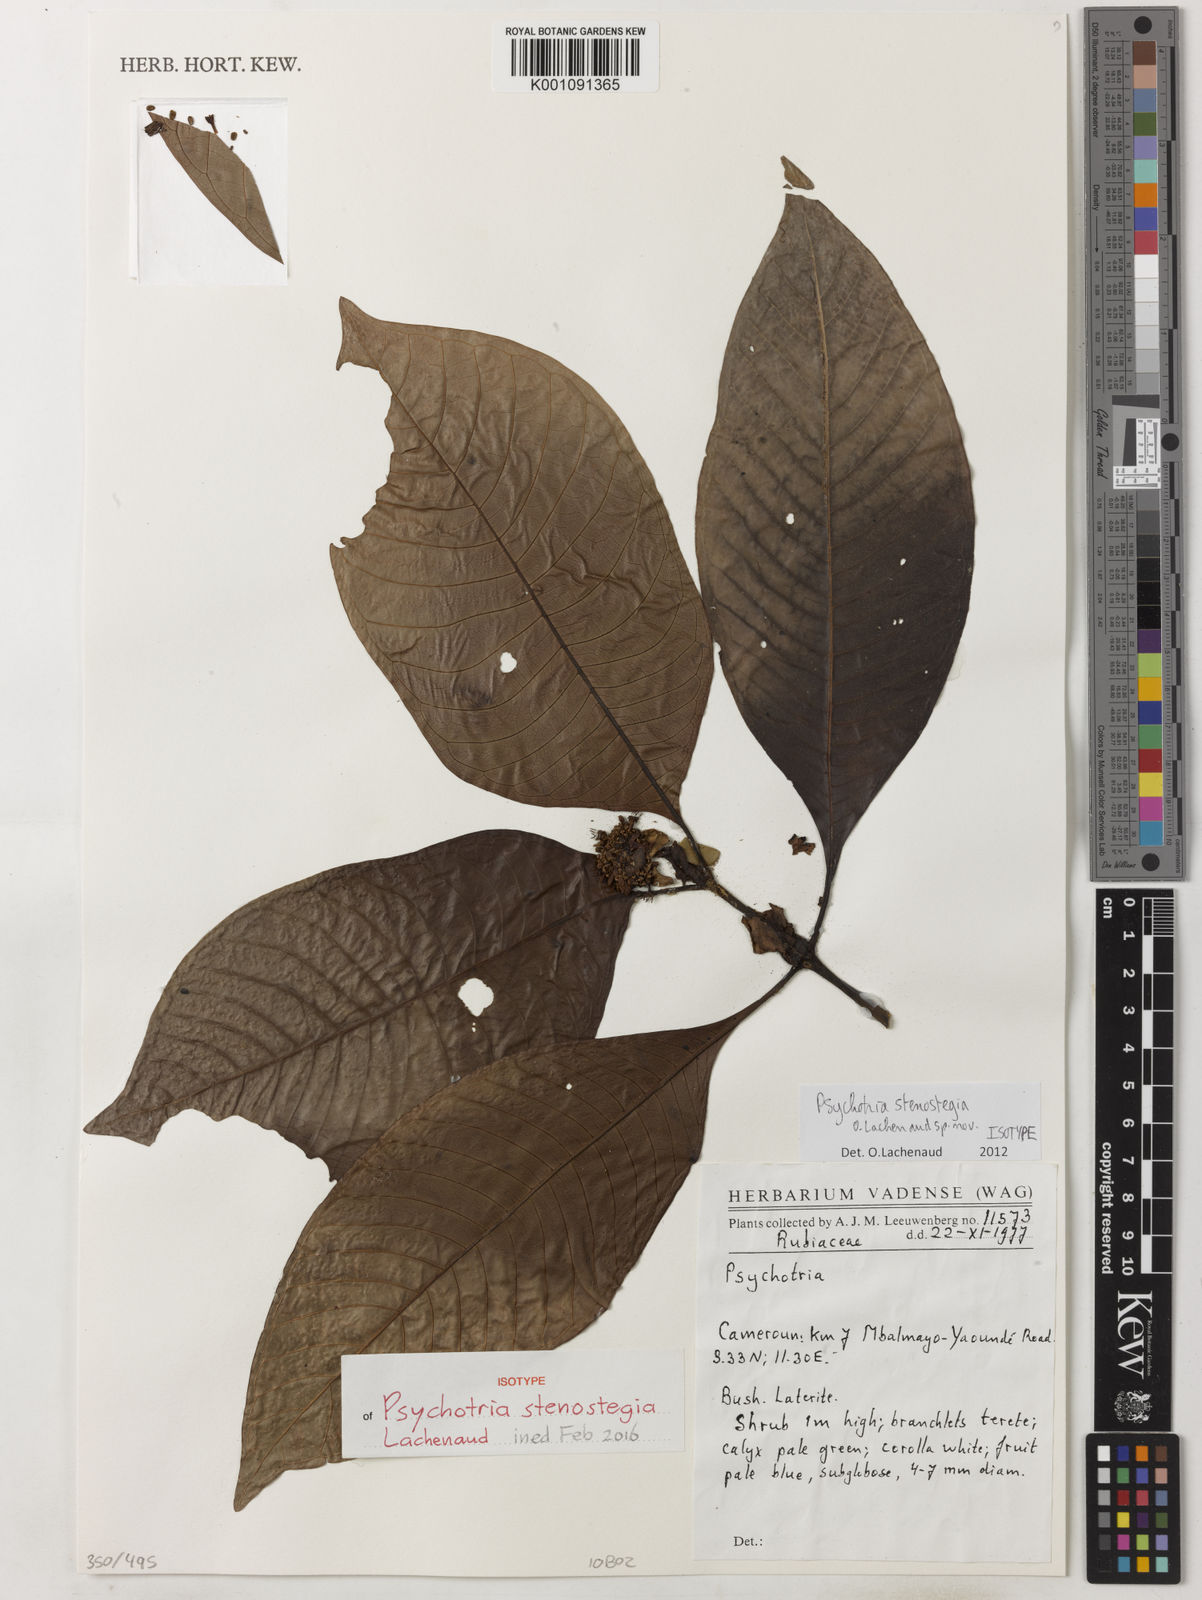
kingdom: Plantae
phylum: Tracheophyta
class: Magnoliopsida
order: Gentianales
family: Rubiaceae
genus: Psychotria
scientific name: Psychotria
